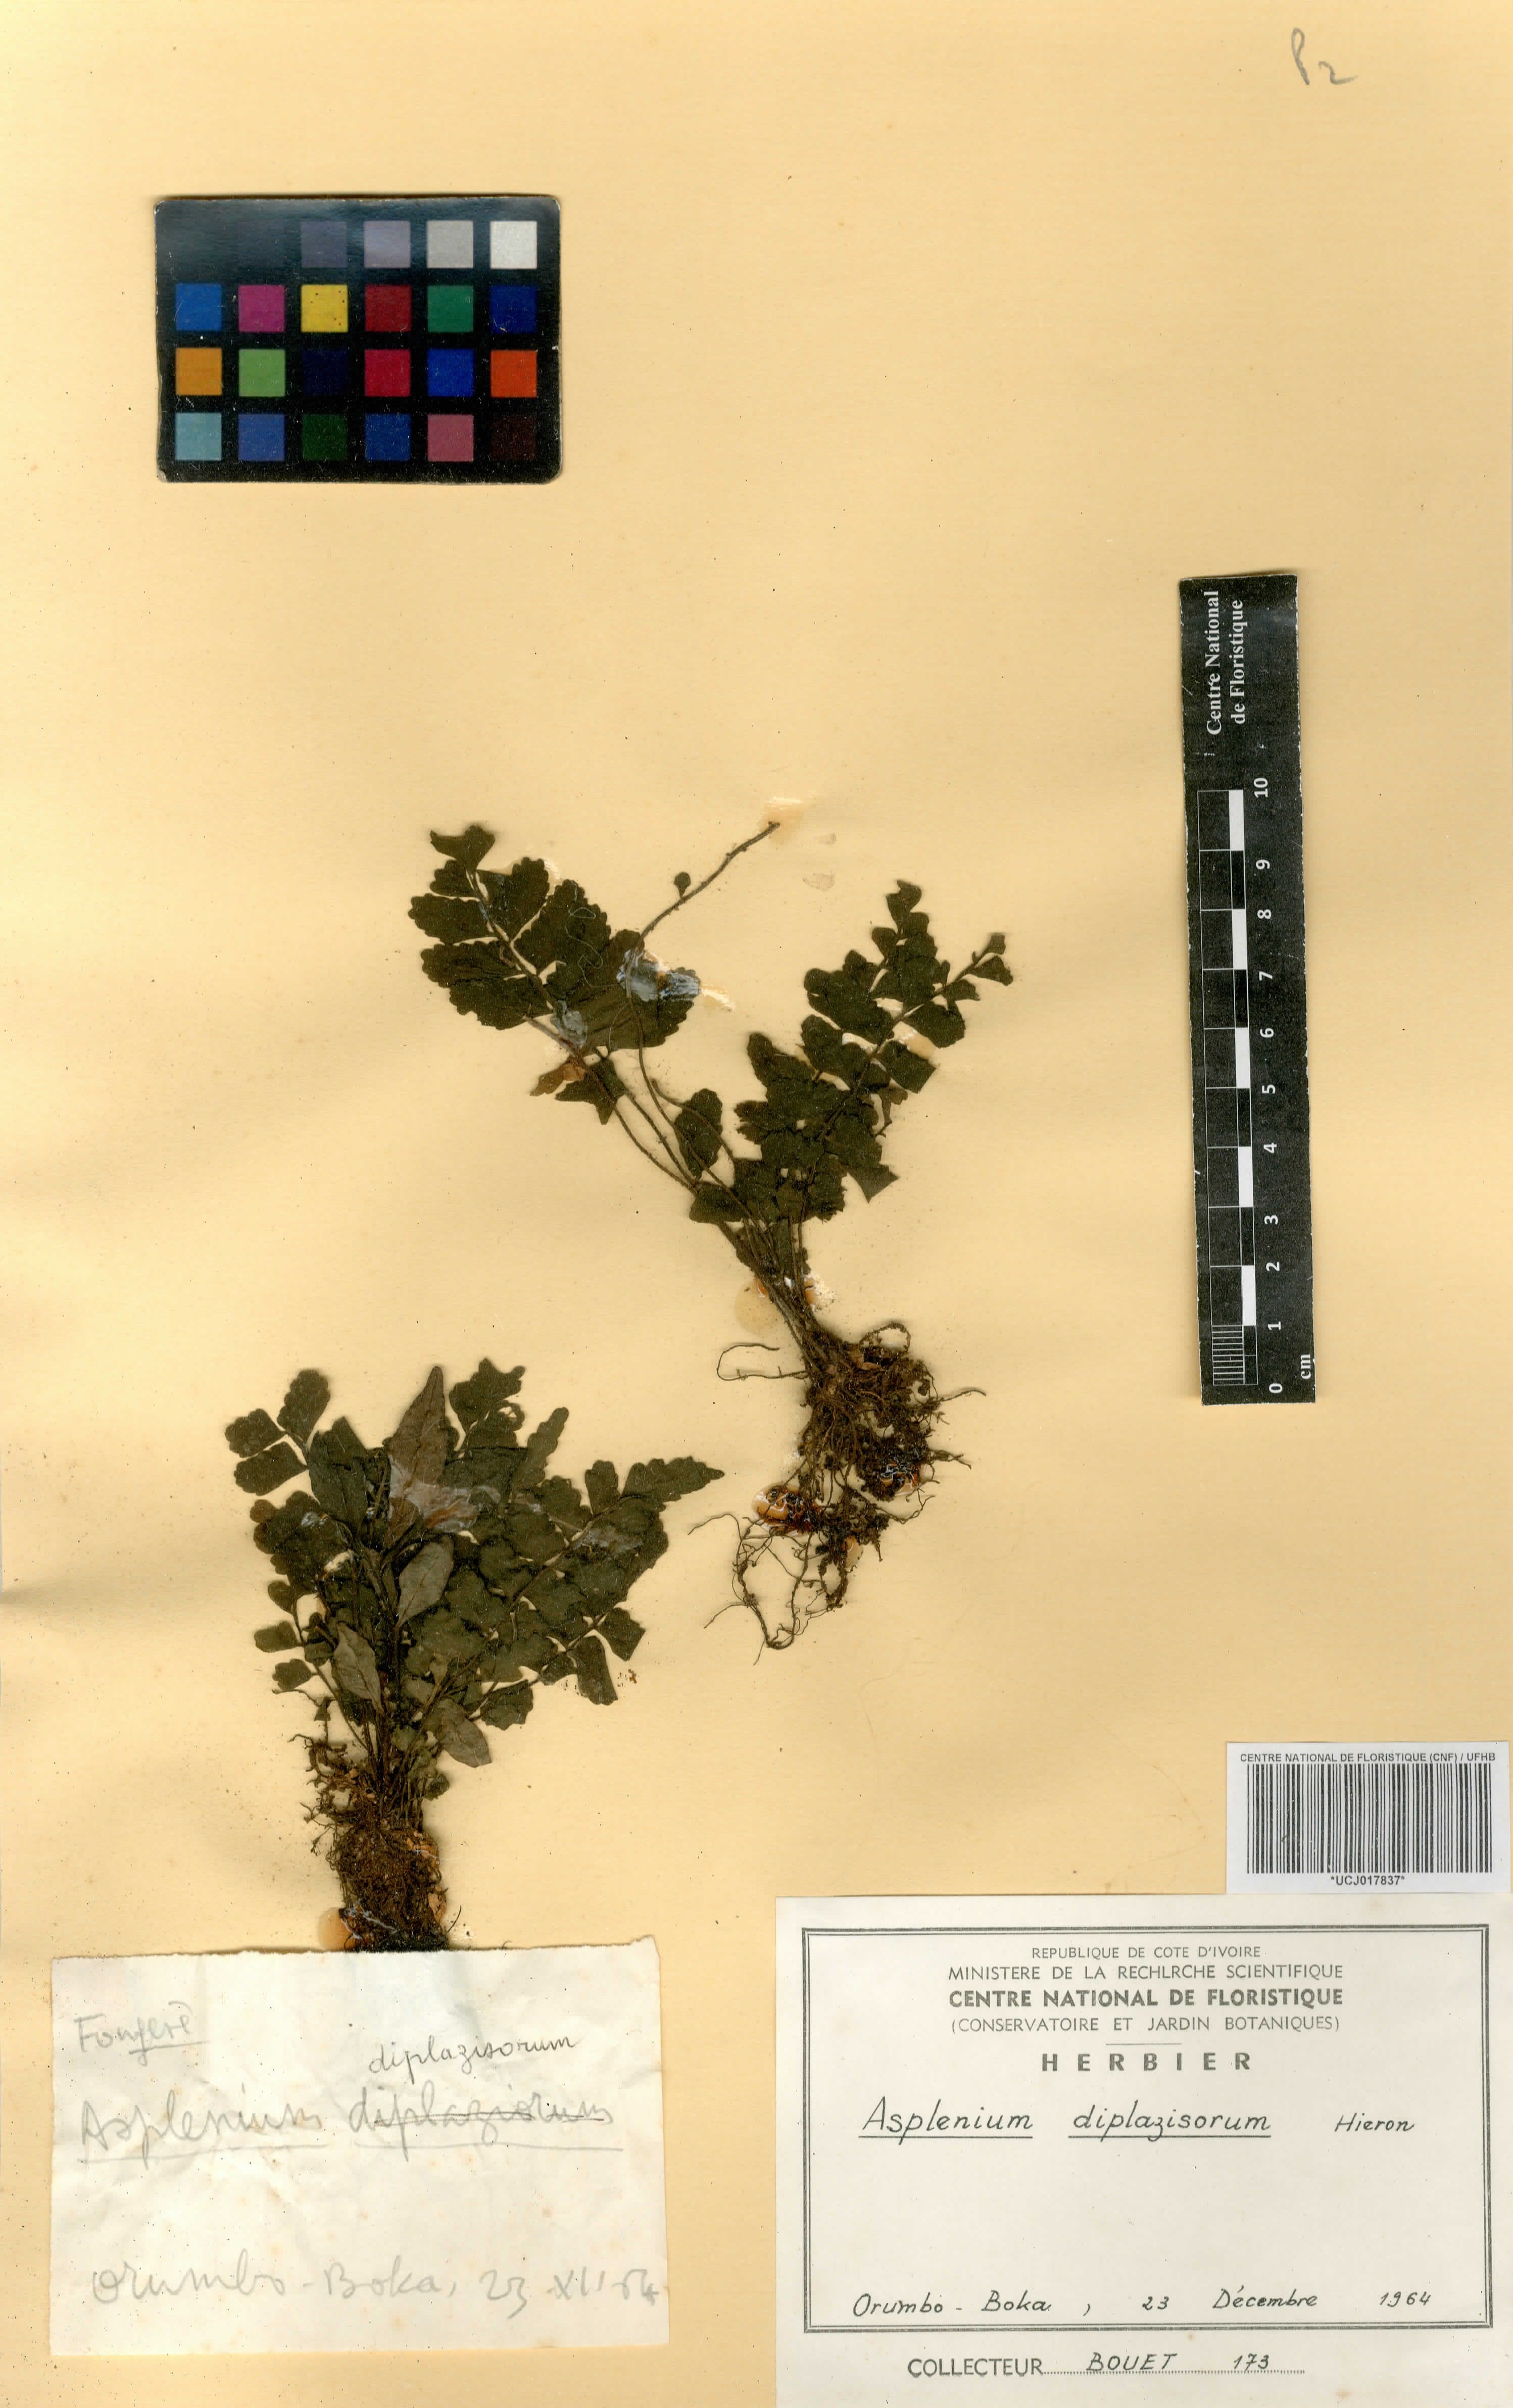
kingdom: Plantae
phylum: Tracheophyta
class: Polypodiopsida
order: Polypodiales
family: Aspleniaceae
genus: Asplenium
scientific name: Asplenium diplazisorum
